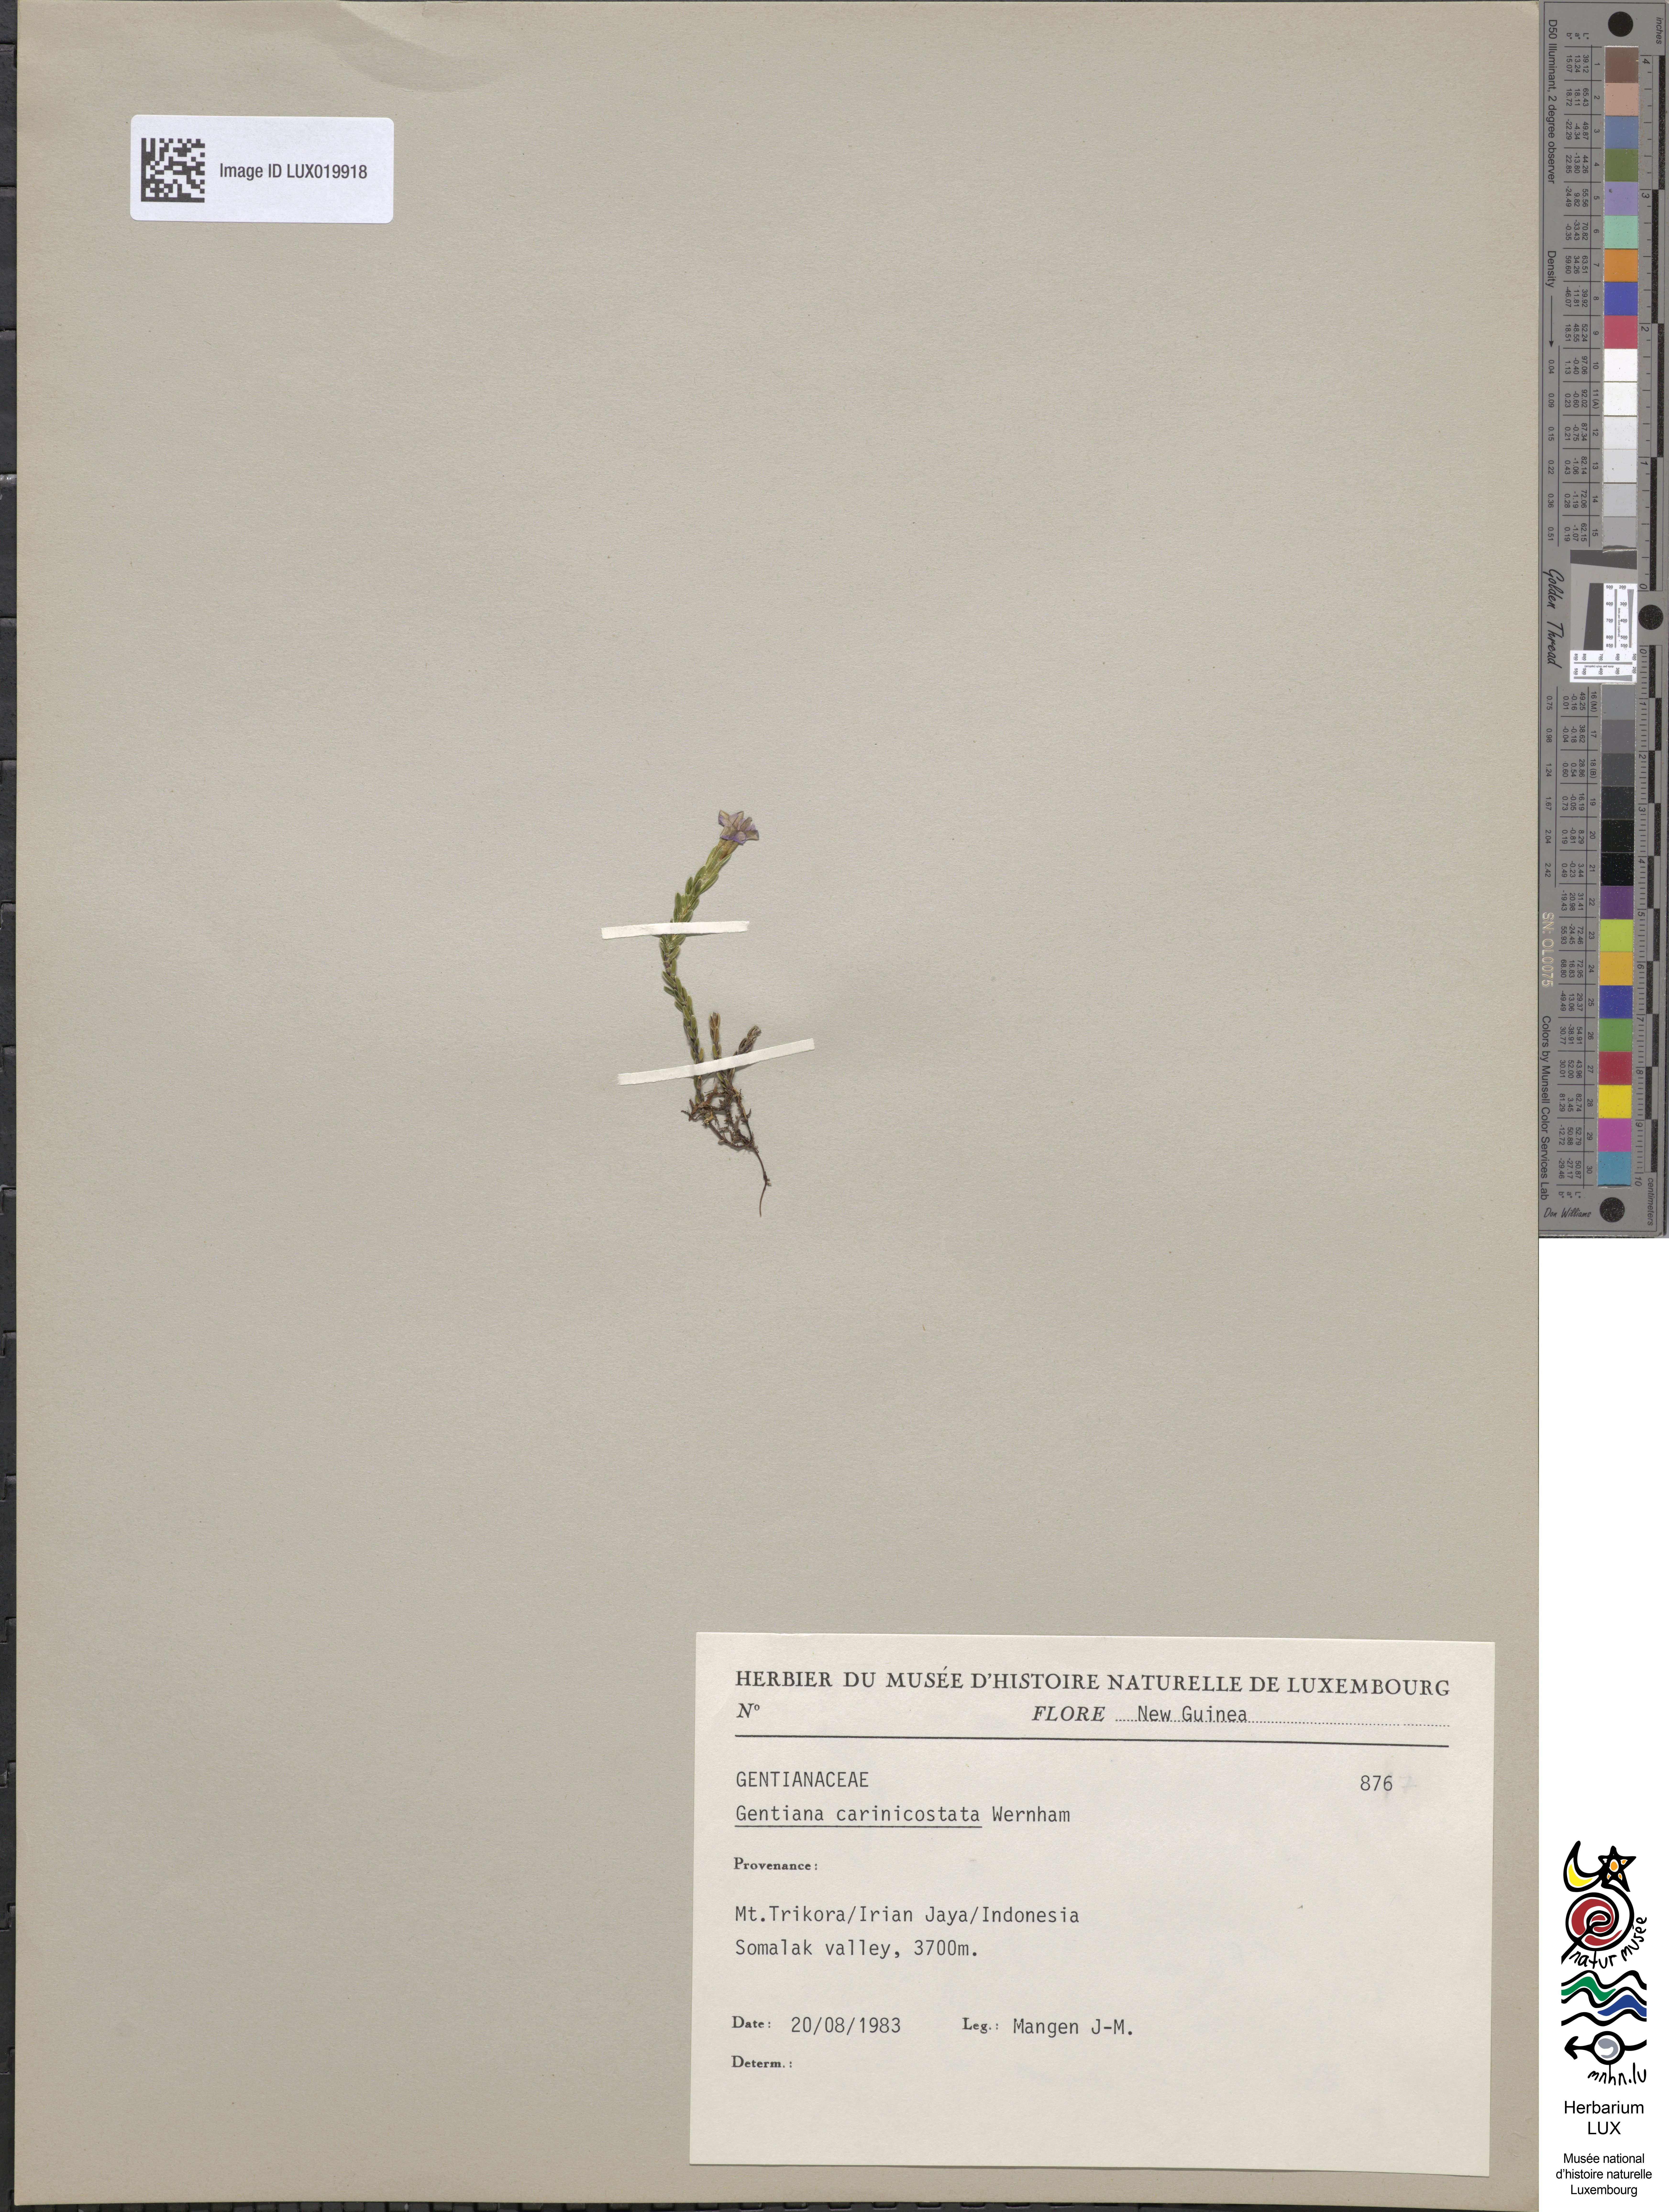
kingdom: Plantae
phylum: Tracheophyta
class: Magnoliopsida
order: Gentianales
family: Gentianaceae
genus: Gentiana
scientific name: Gentiana carinicostata
